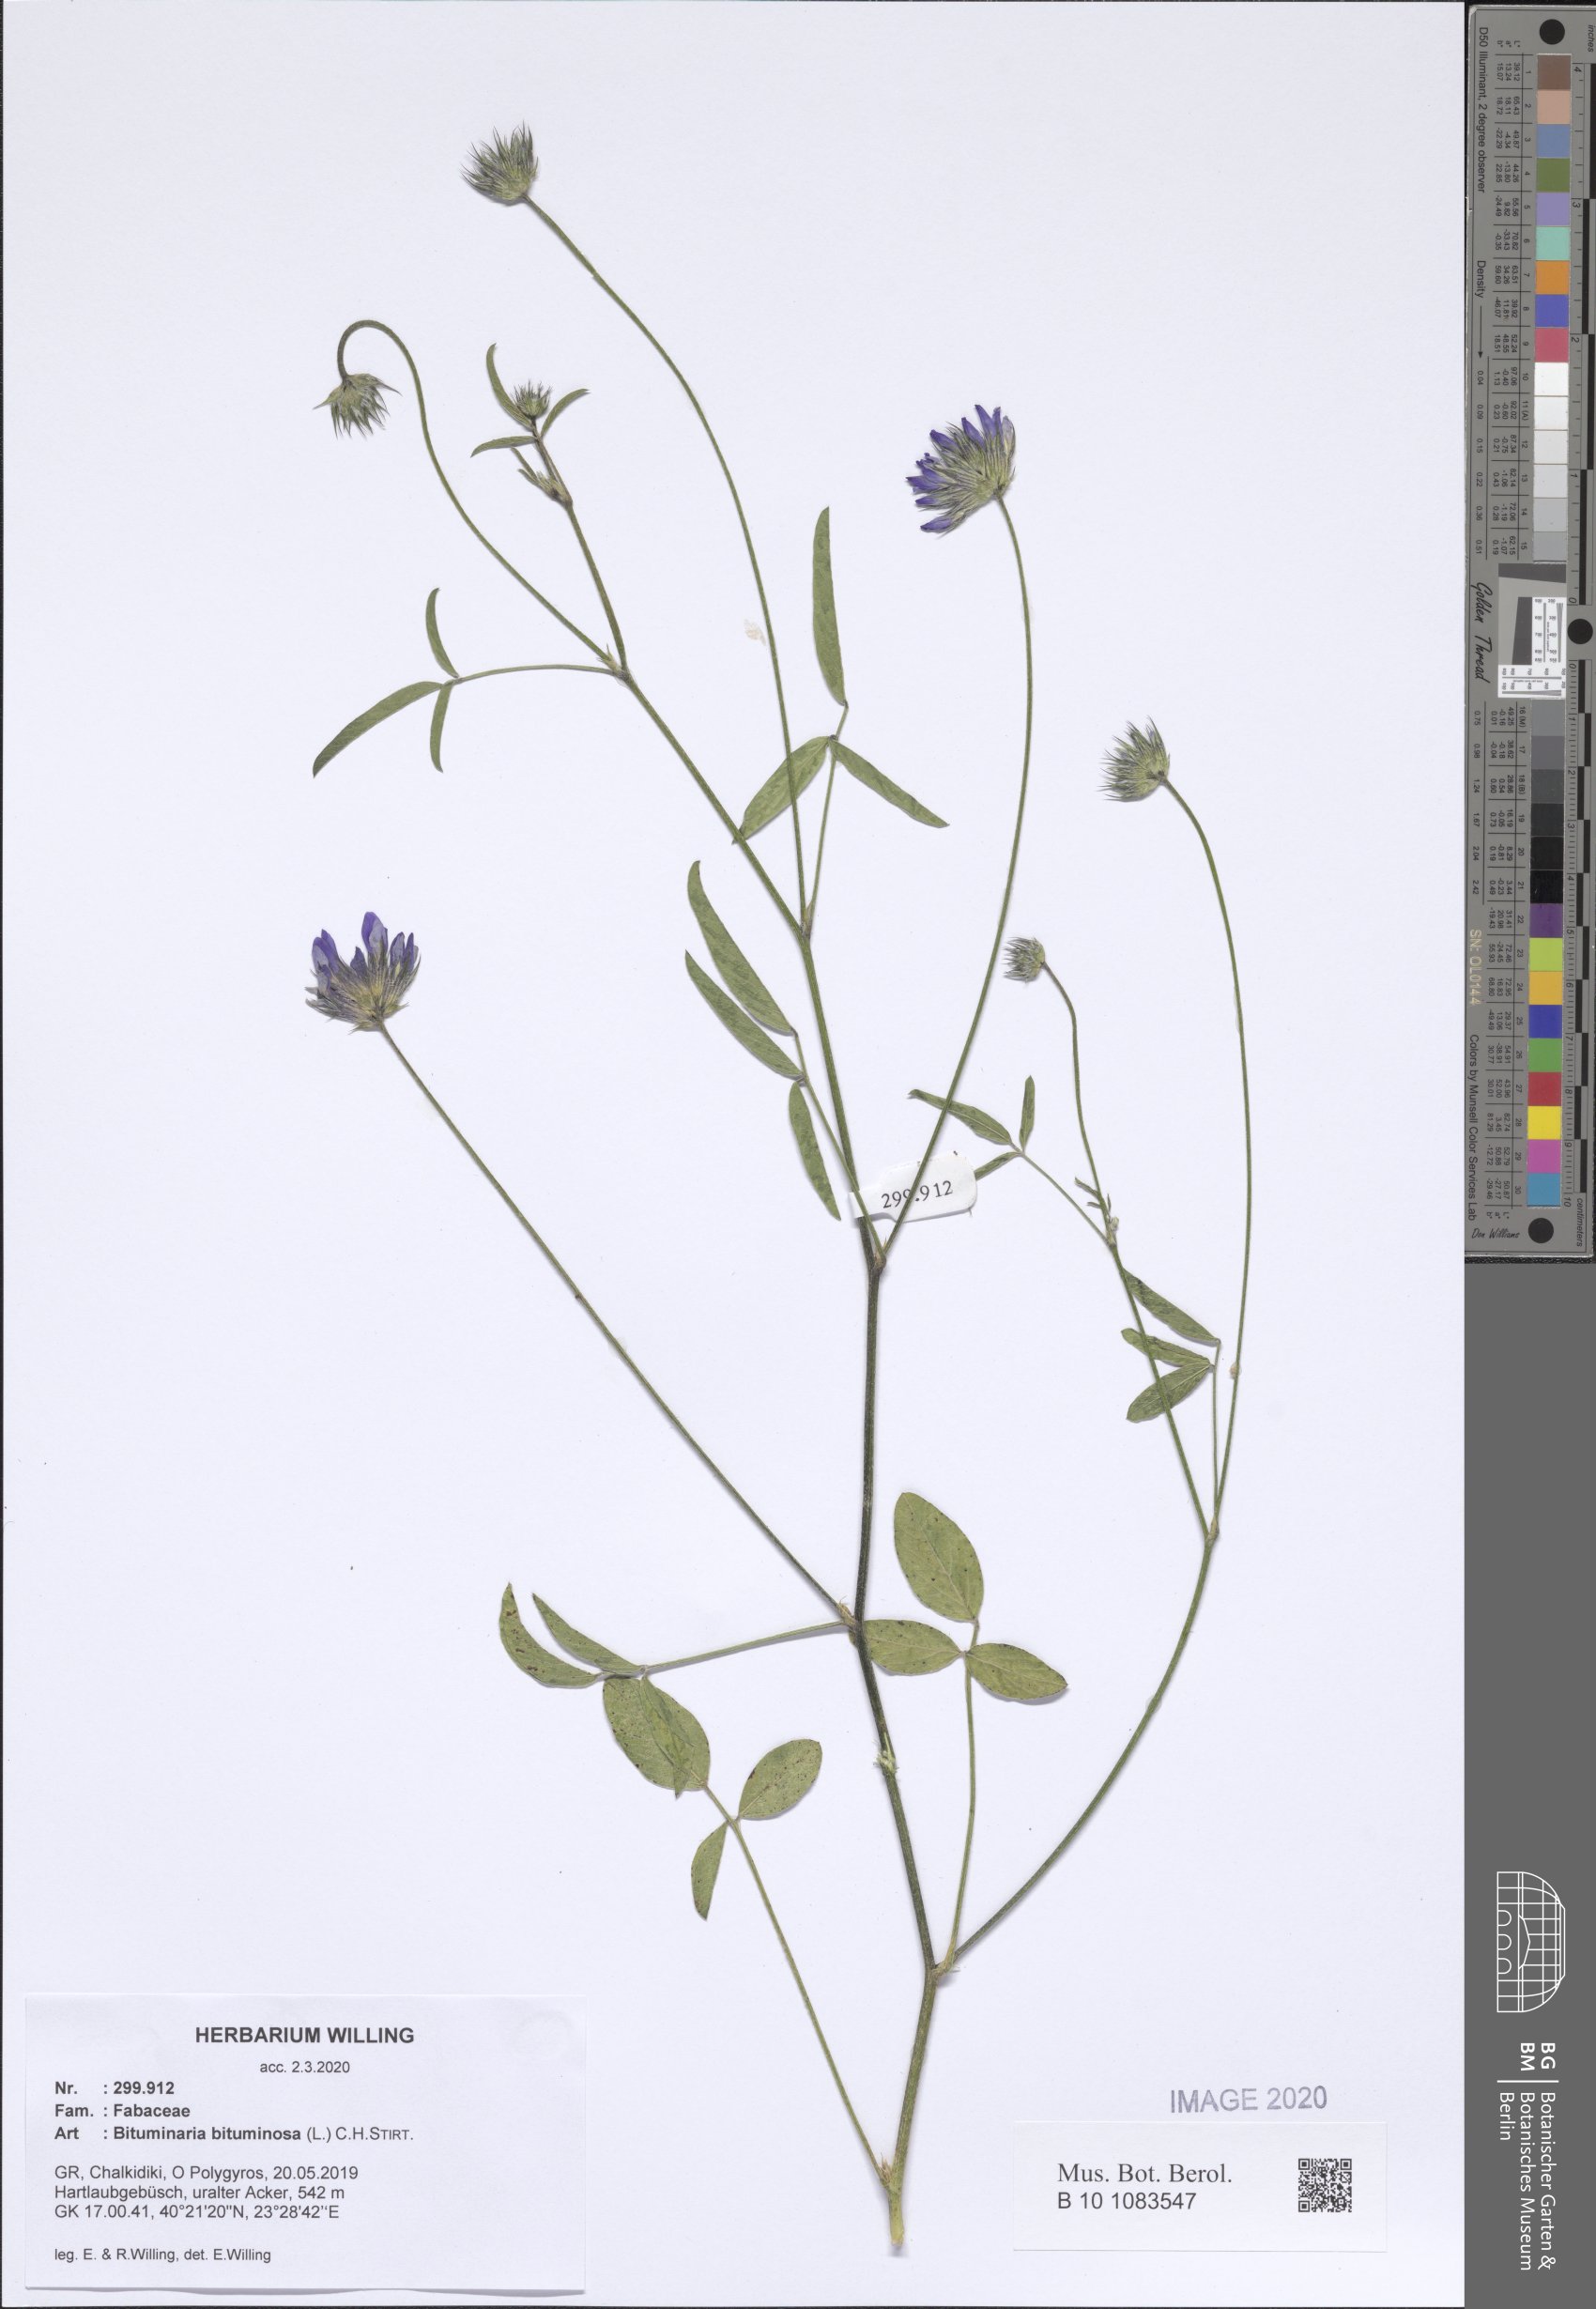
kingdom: Plantae
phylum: Tracheophyta
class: Magnoliopsida
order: Fabales
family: Fabaceae
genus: Bituminaria
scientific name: Bituminaria bituminosa
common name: Arabian pea
